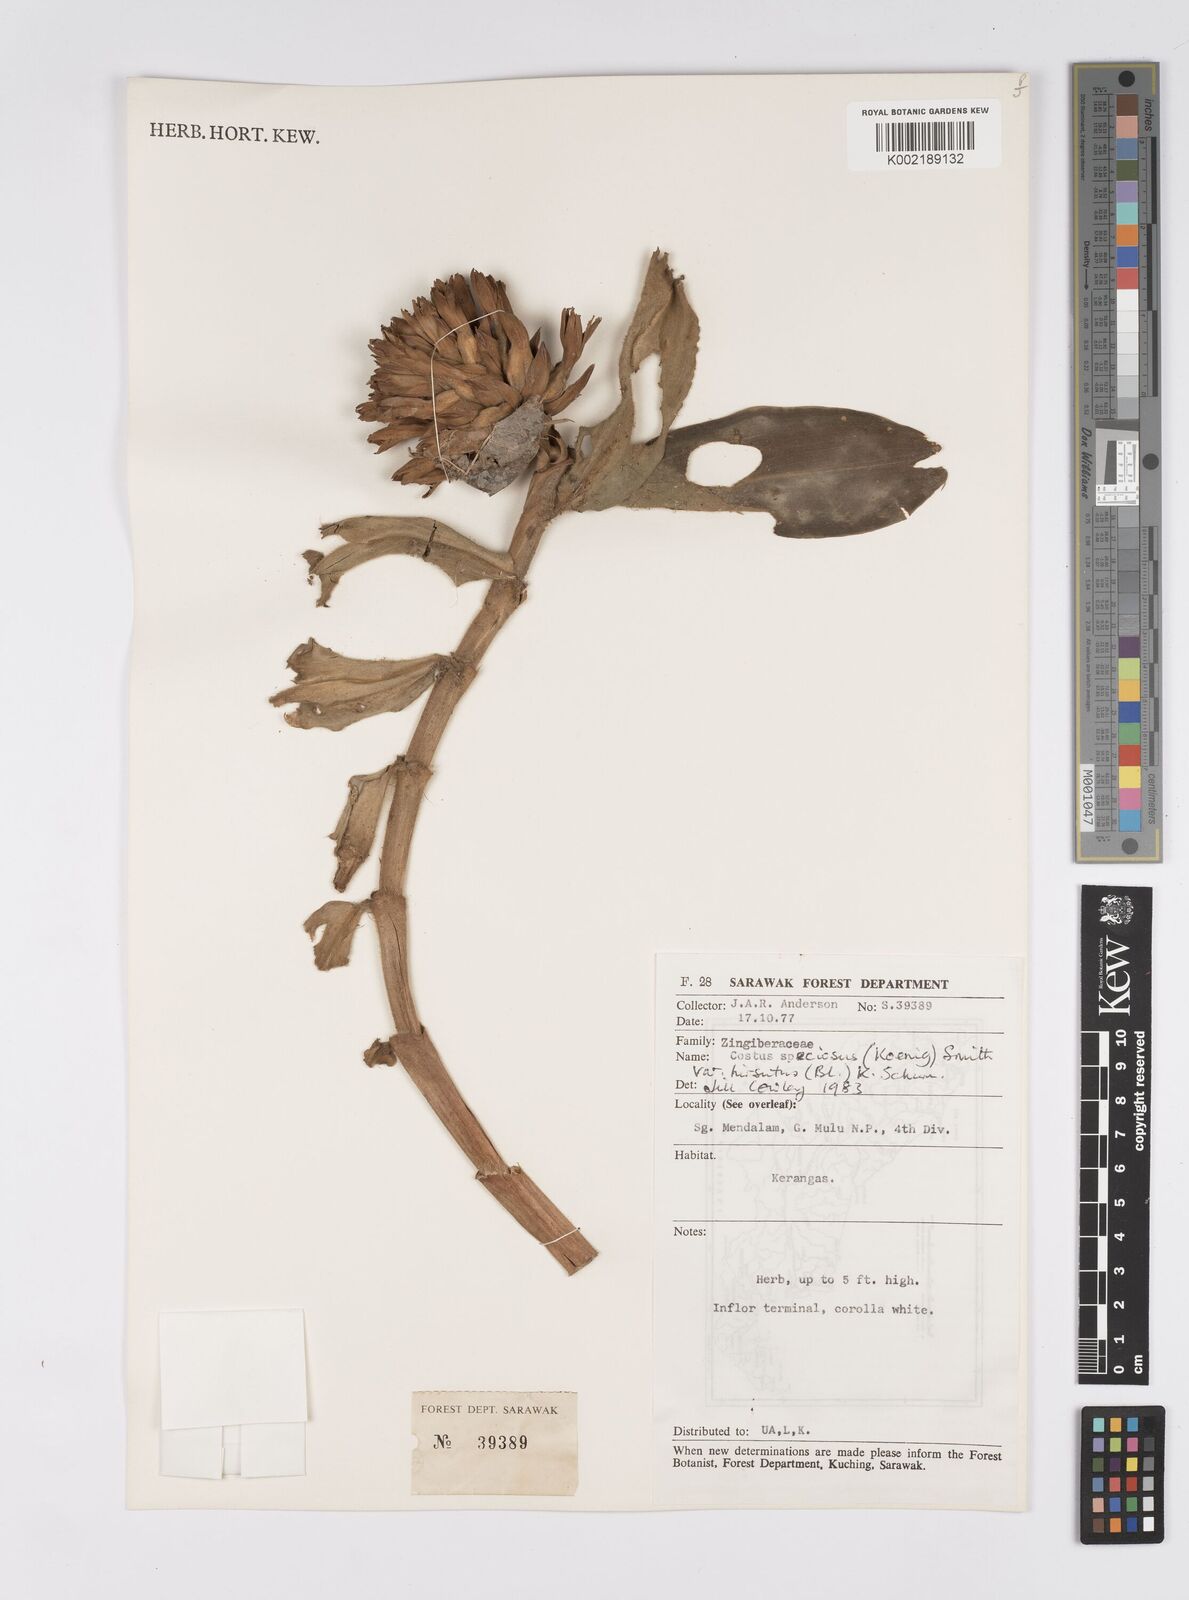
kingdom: Plantae
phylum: Tracheophyta
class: Liliopsida
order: Zingiberales
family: Costaceae
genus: Hellenia
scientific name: Hellenia speciosa
